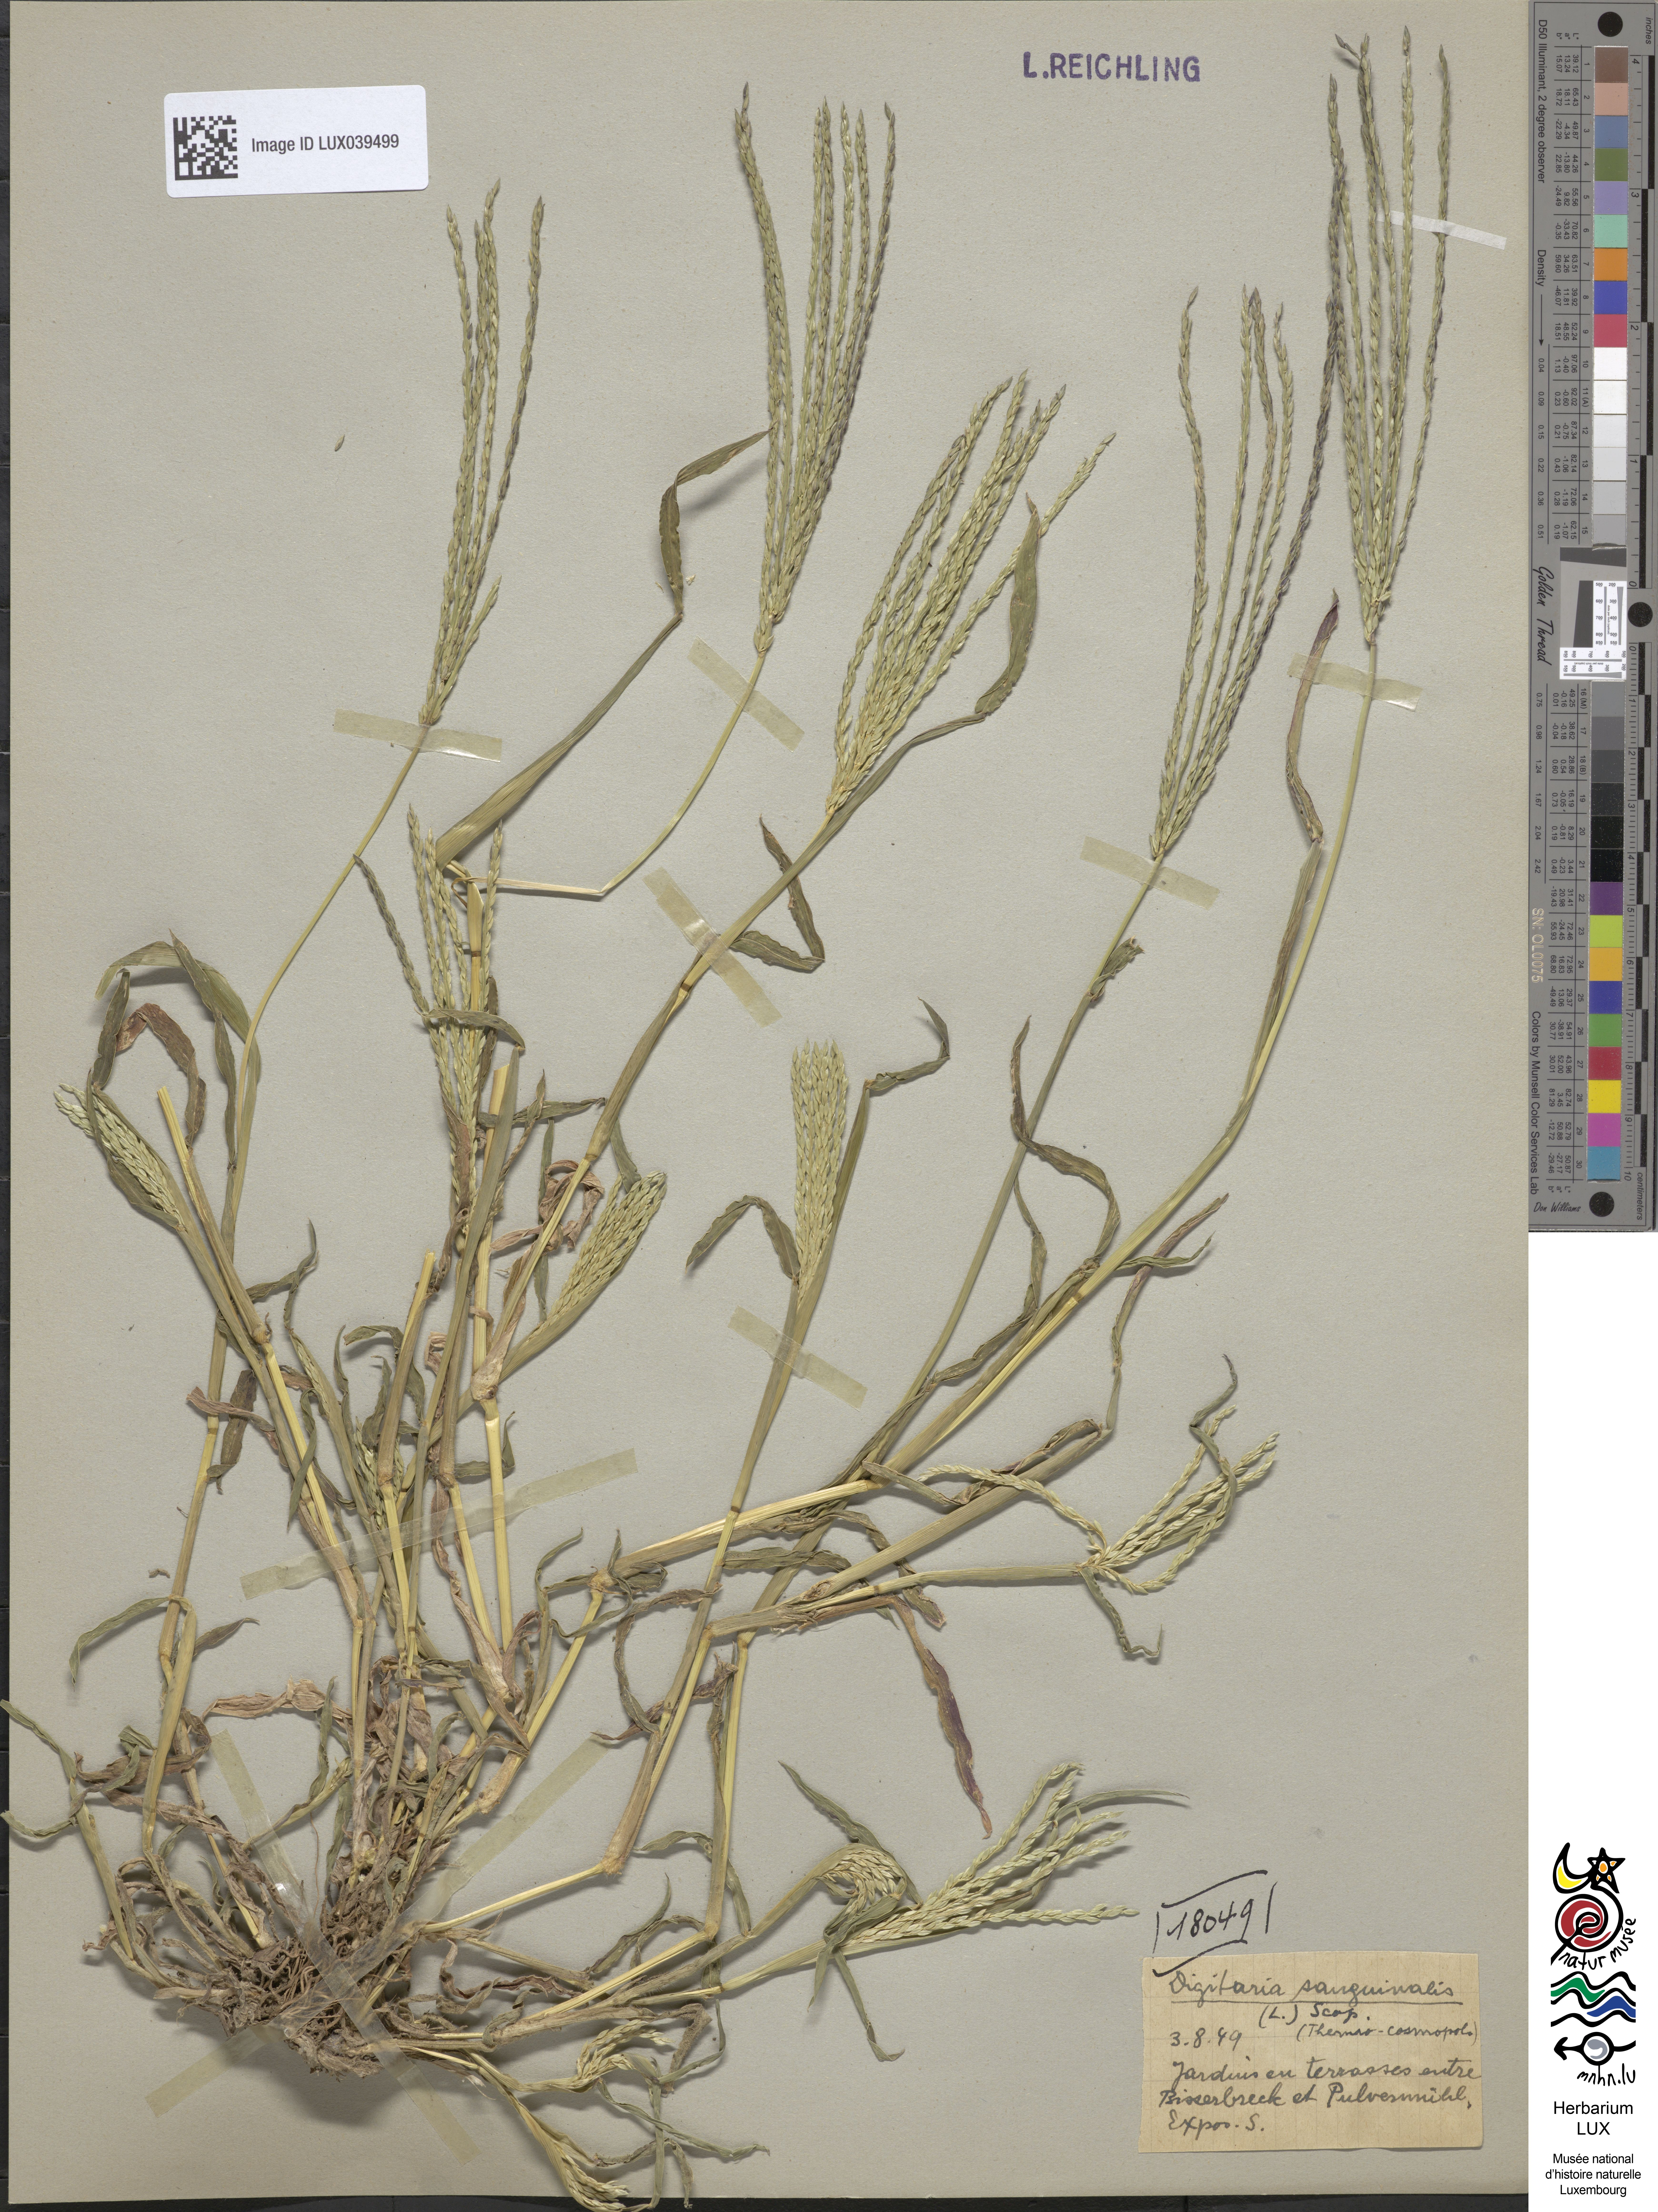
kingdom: Plantae
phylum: Tracheophyta
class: Liliopsida
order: Poales
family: Poaceae
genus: Digitaria
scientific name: Digitaria sanguinalis
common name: Hairy crabgrass
